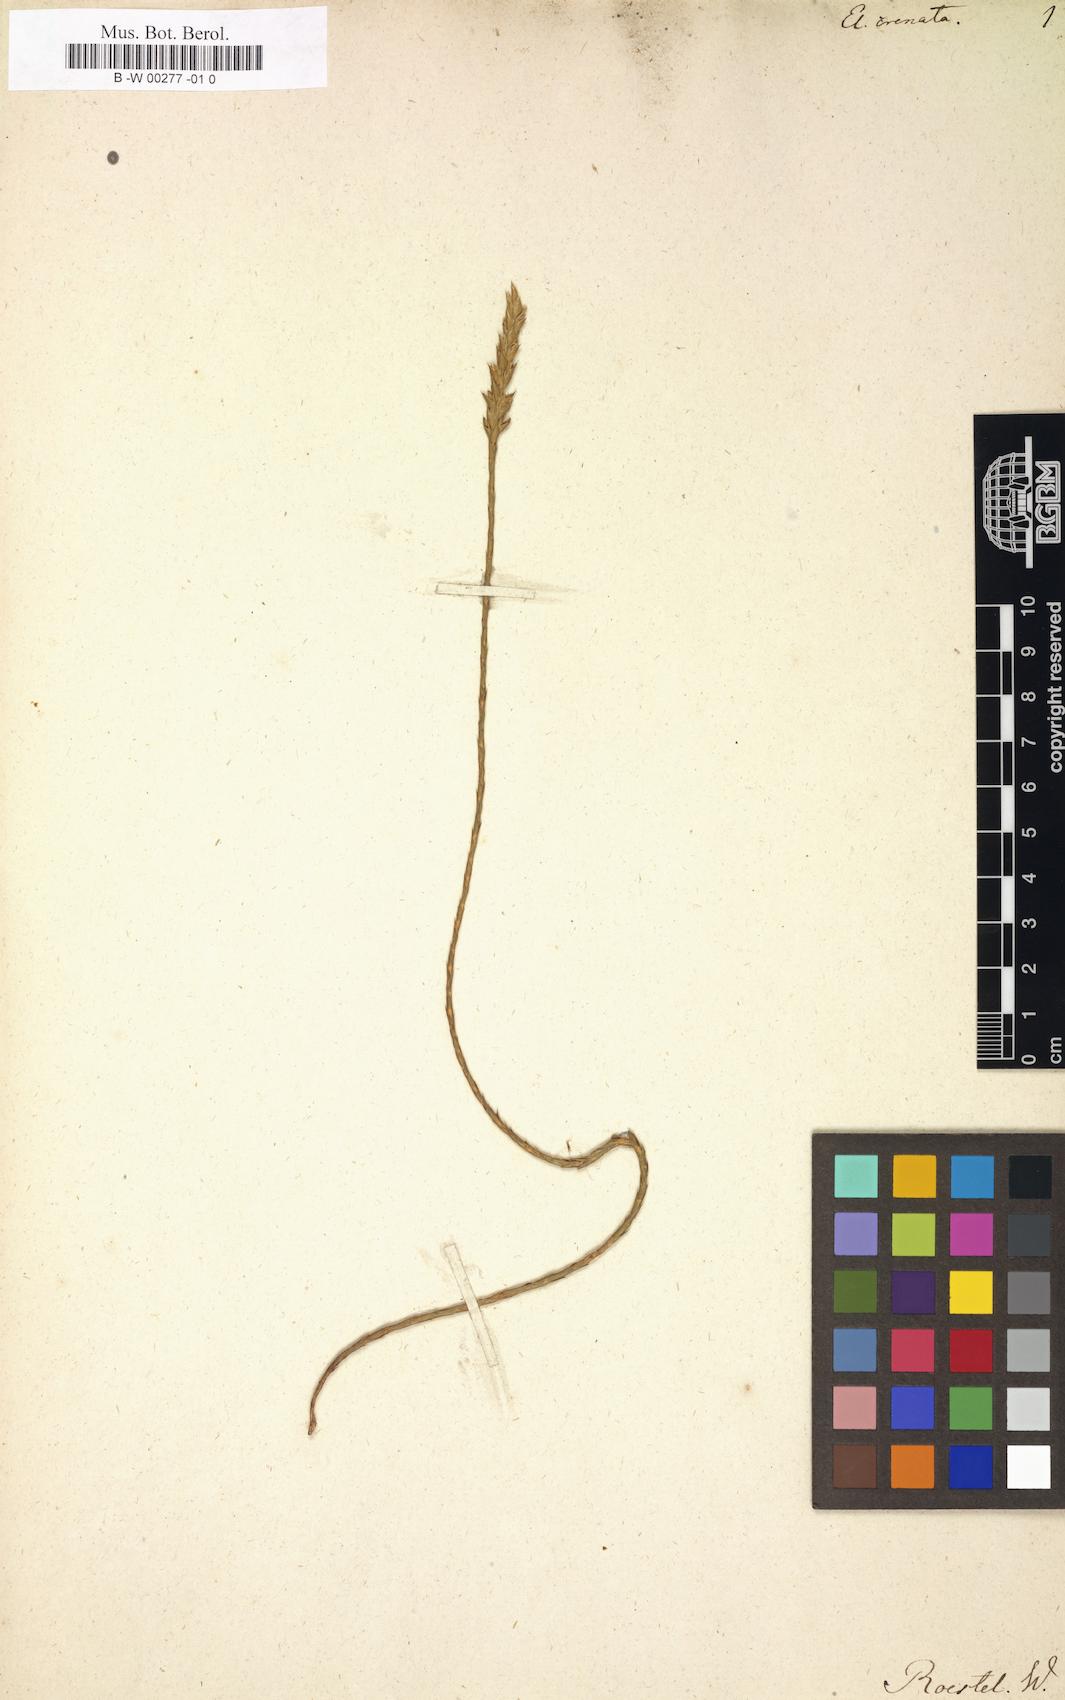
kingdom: Plantae
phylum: Tracheophyta
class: Magnoliopsida
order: Lamiales
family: Acanthaceae
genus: Elytraria
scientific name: Elytraria acaulis
